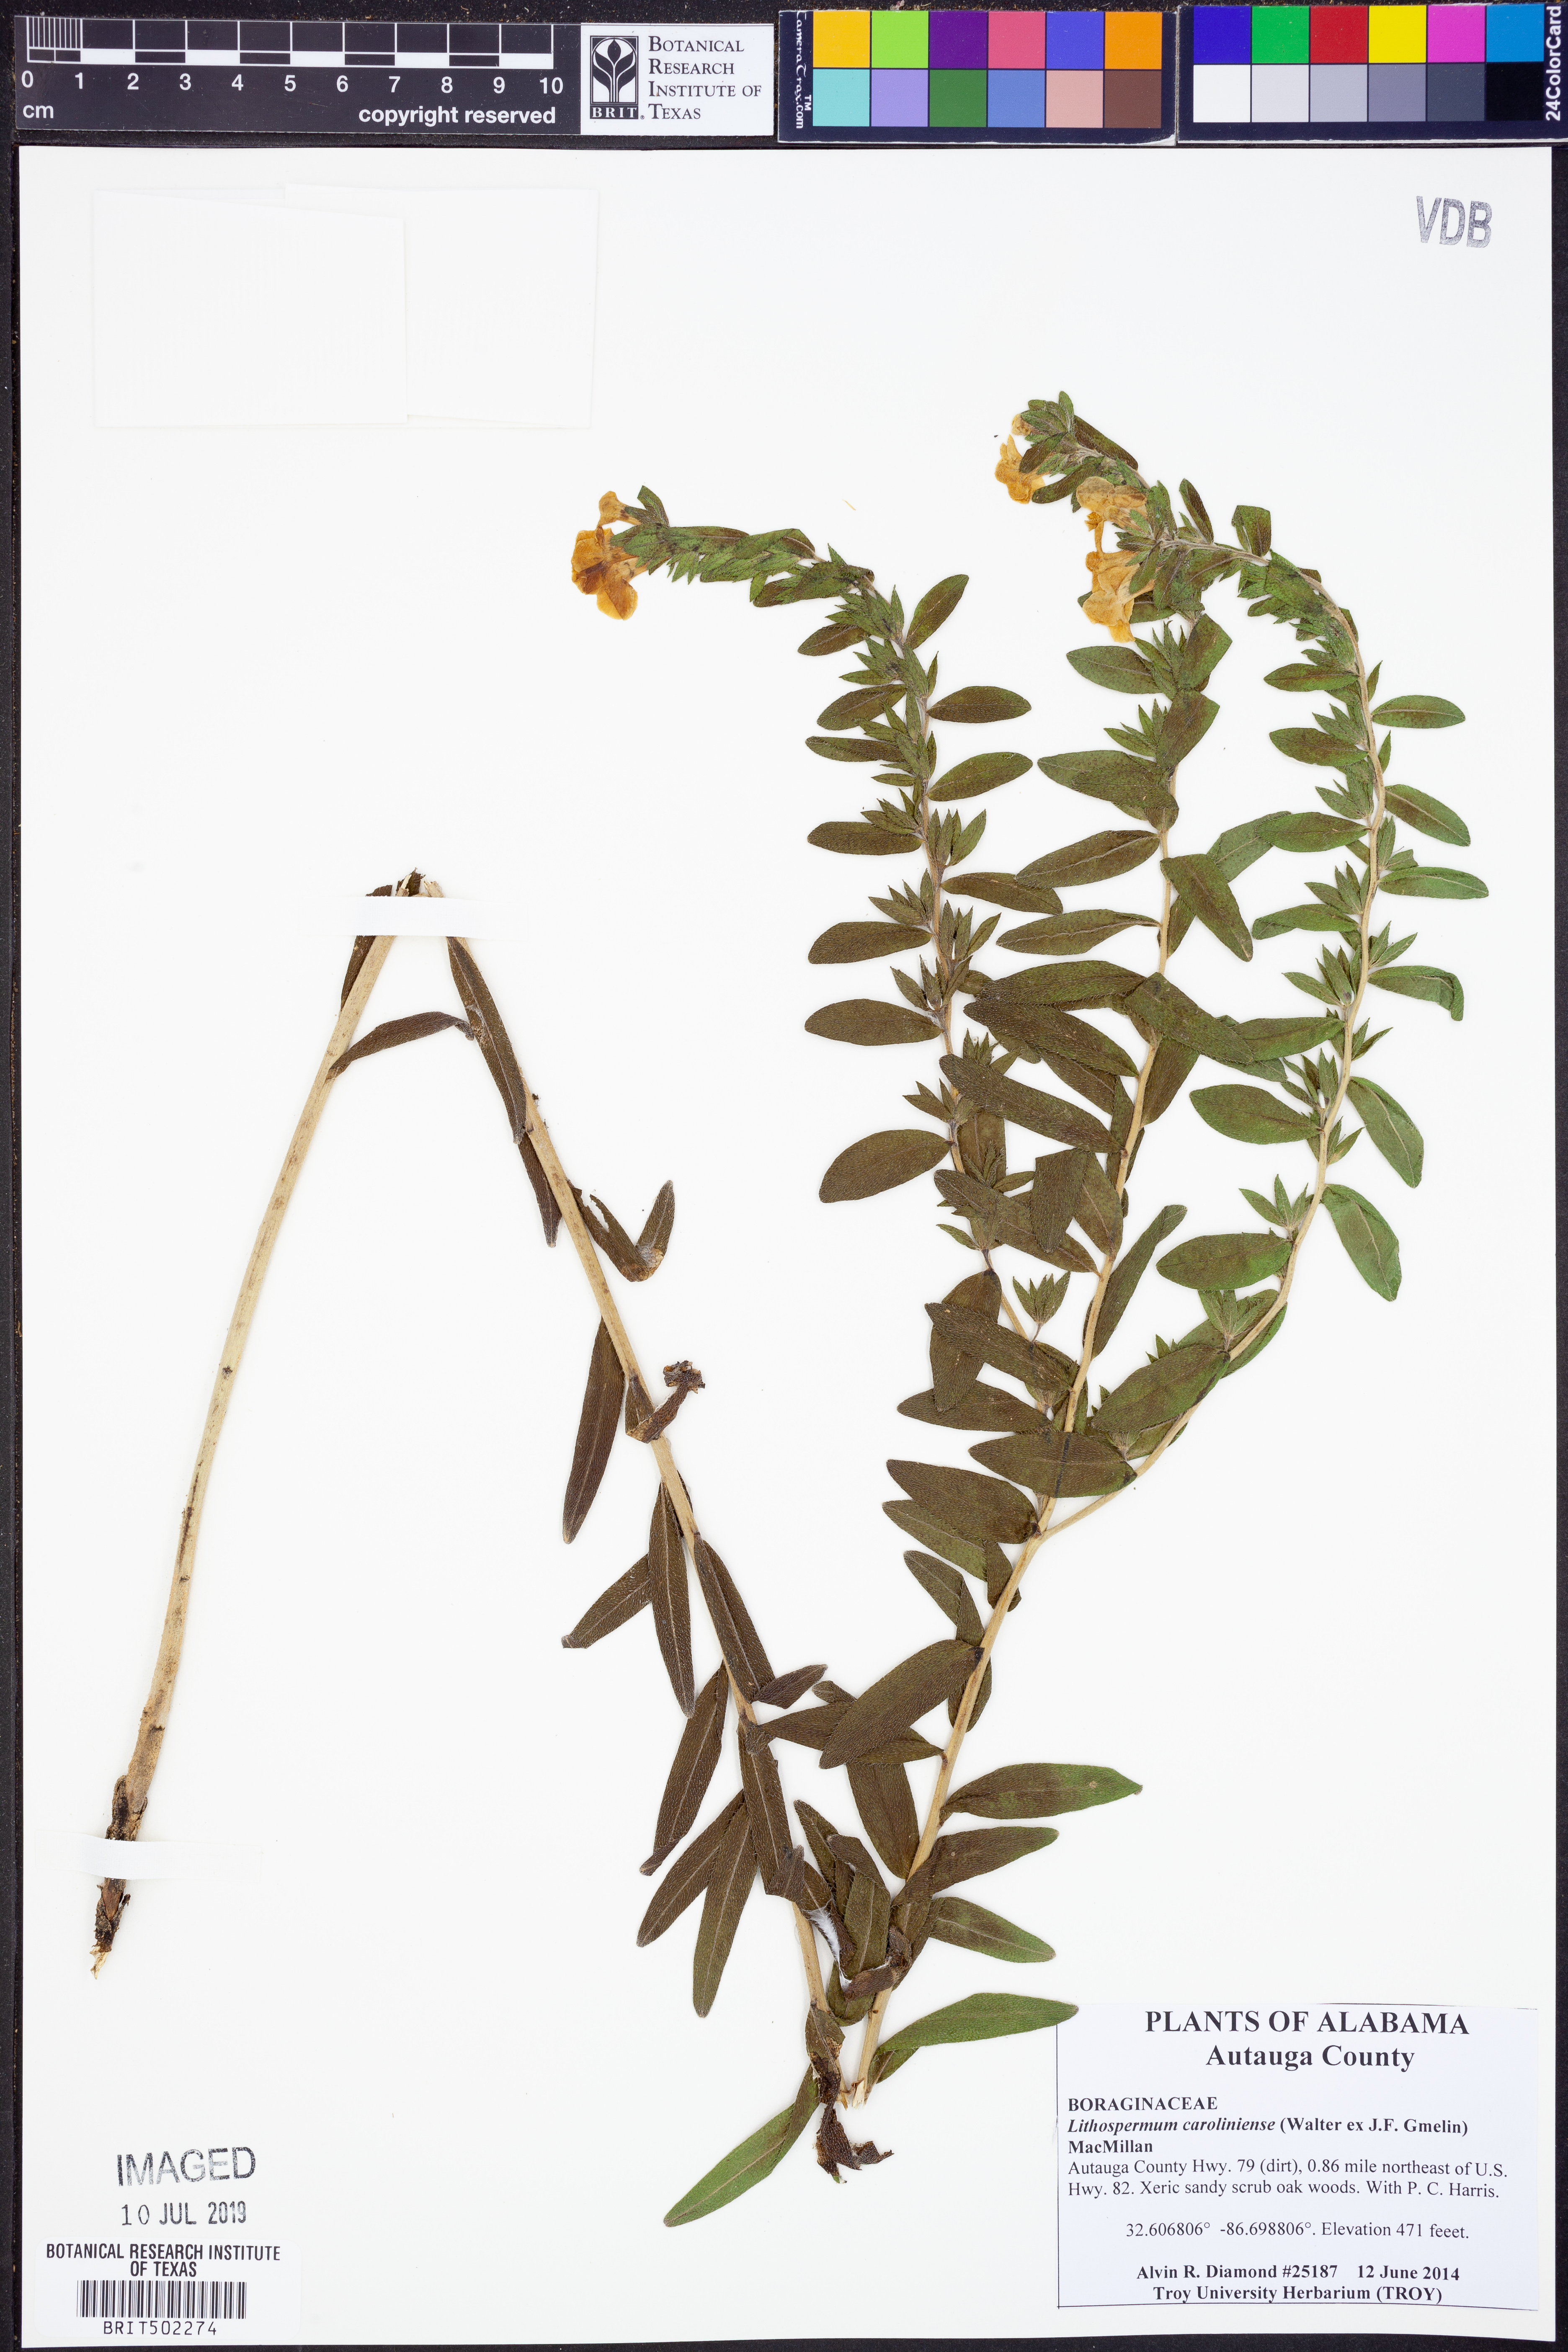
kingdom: Plantae
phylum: Tracheophyta
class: Magnoliopsida
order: Boraginales
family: Boraginaceae
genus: Lithospermum
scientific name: Lithospermum caroliniense
